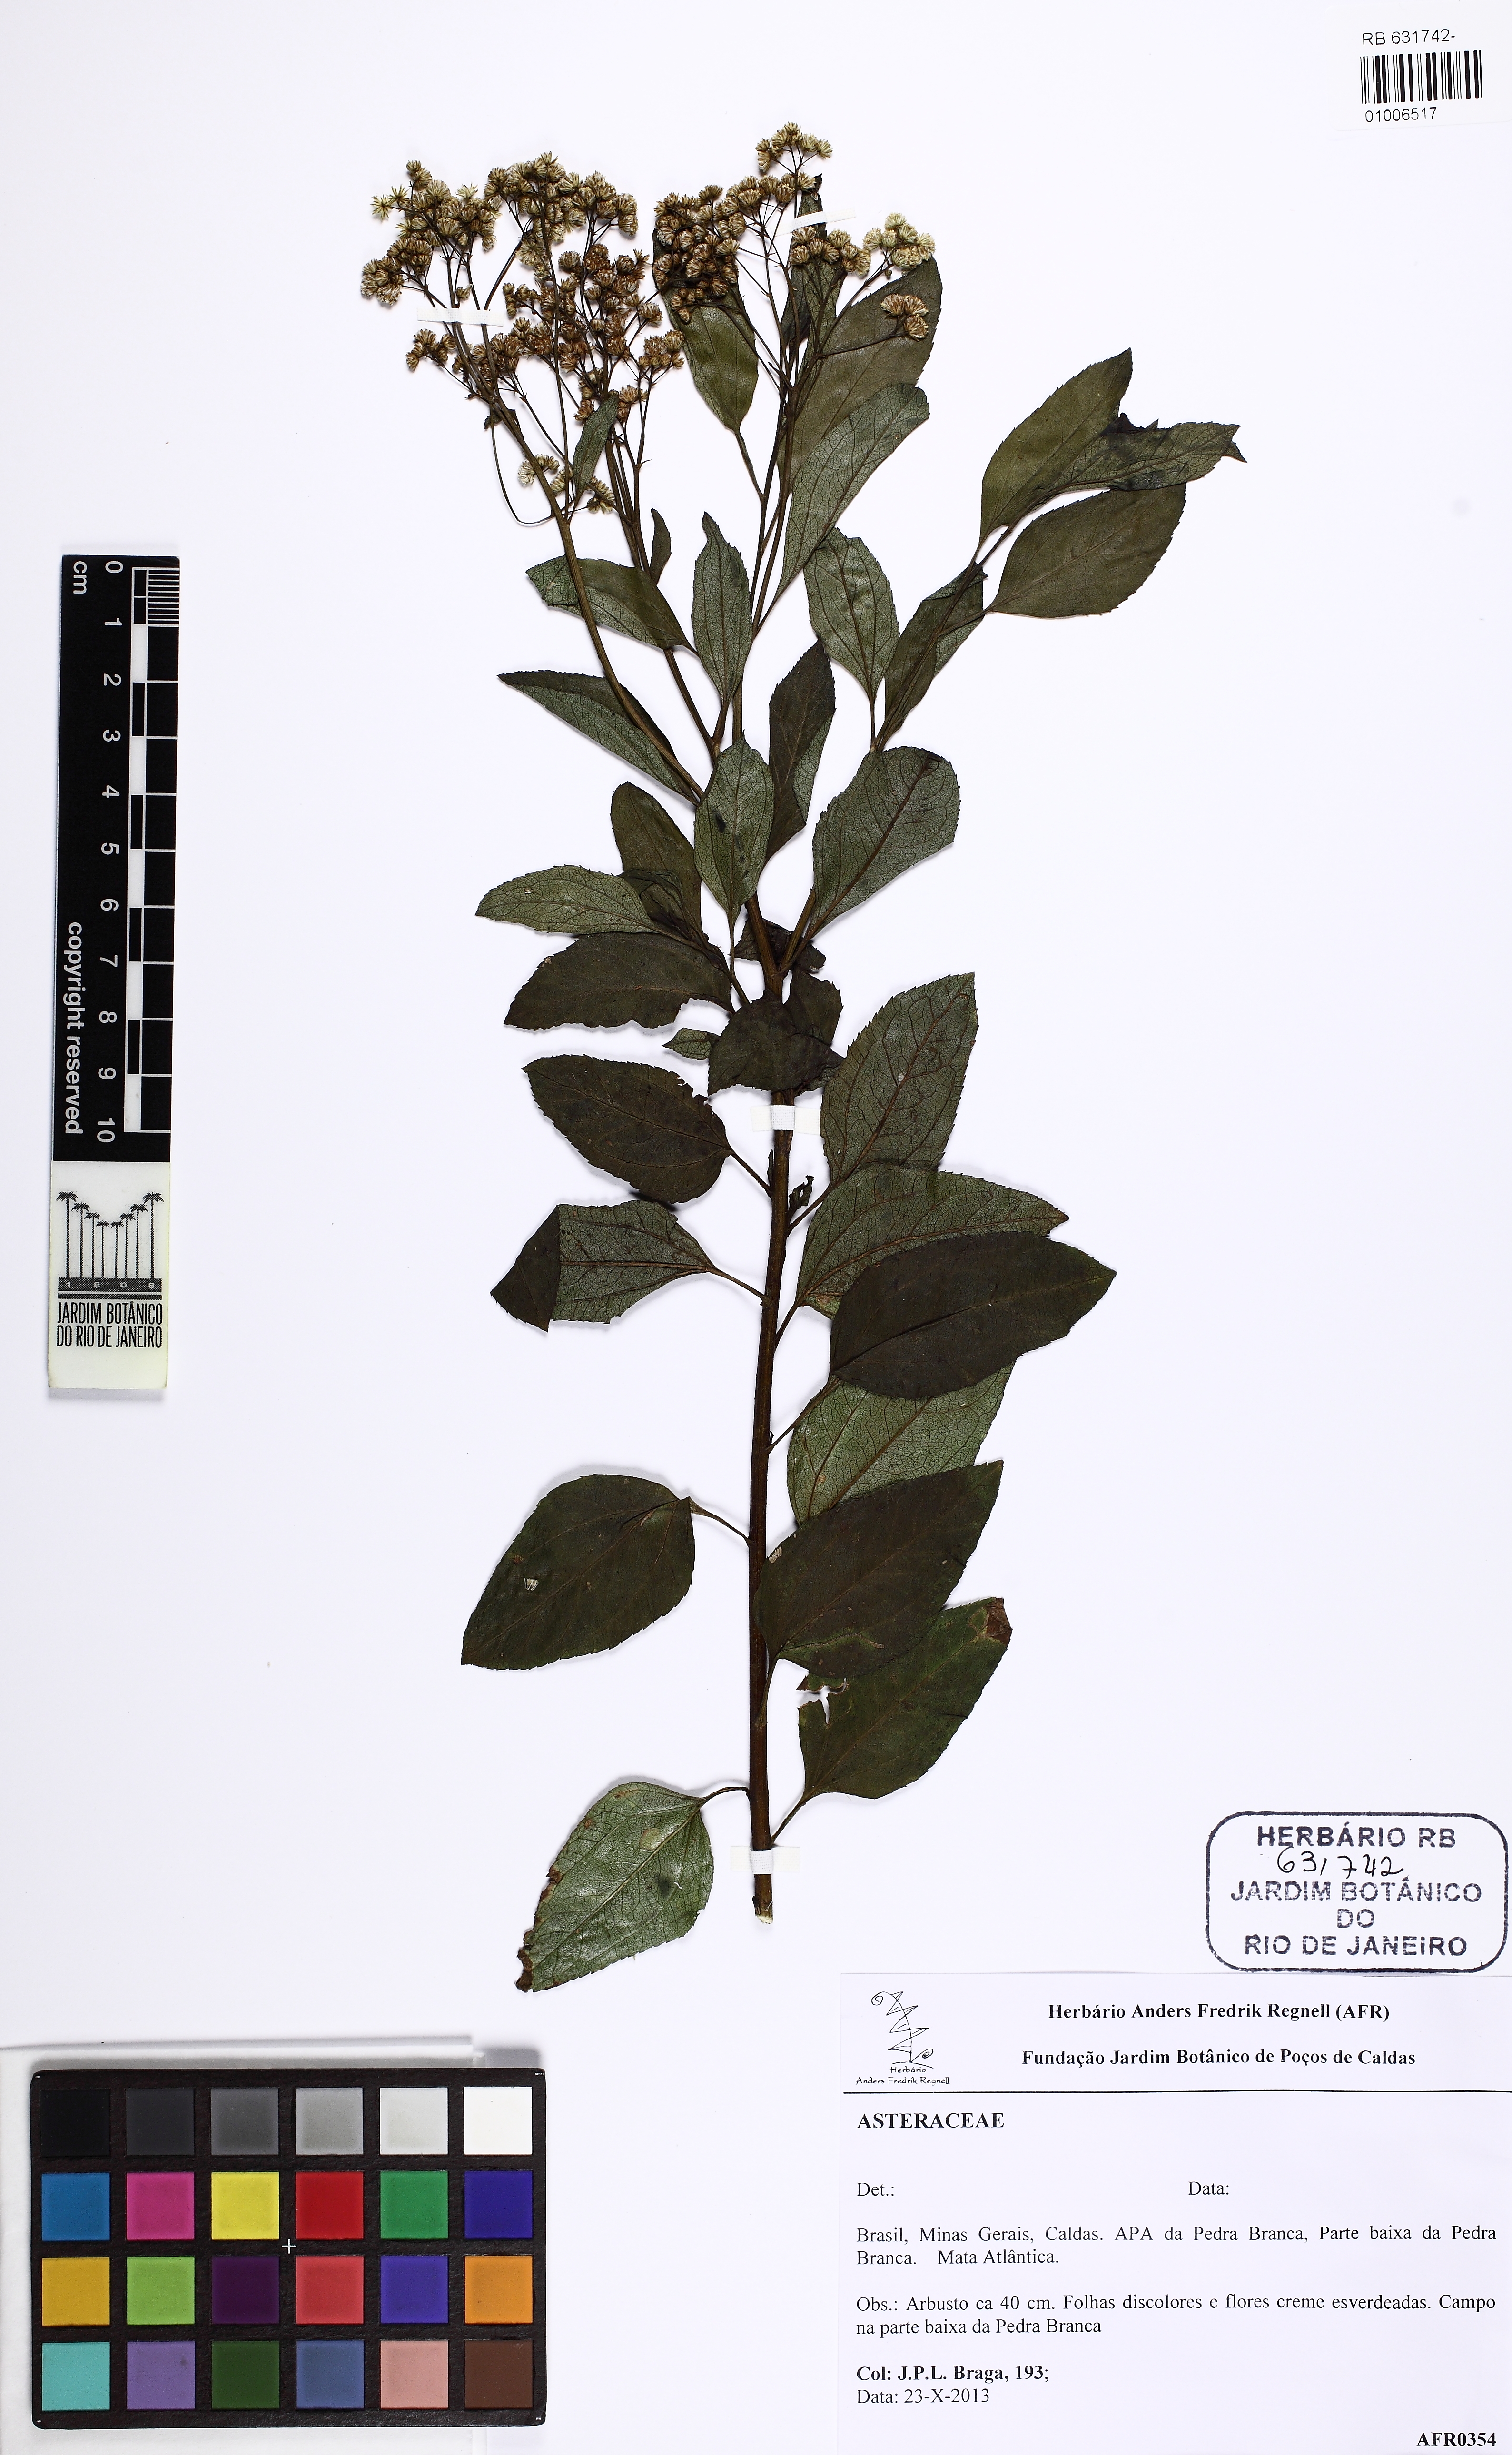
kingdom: Plantae
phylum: Tracheophyta
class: Magnoliopsida
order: Asterales
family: Asteraceae
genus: Baccharis
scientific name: Baccharis serrulata
